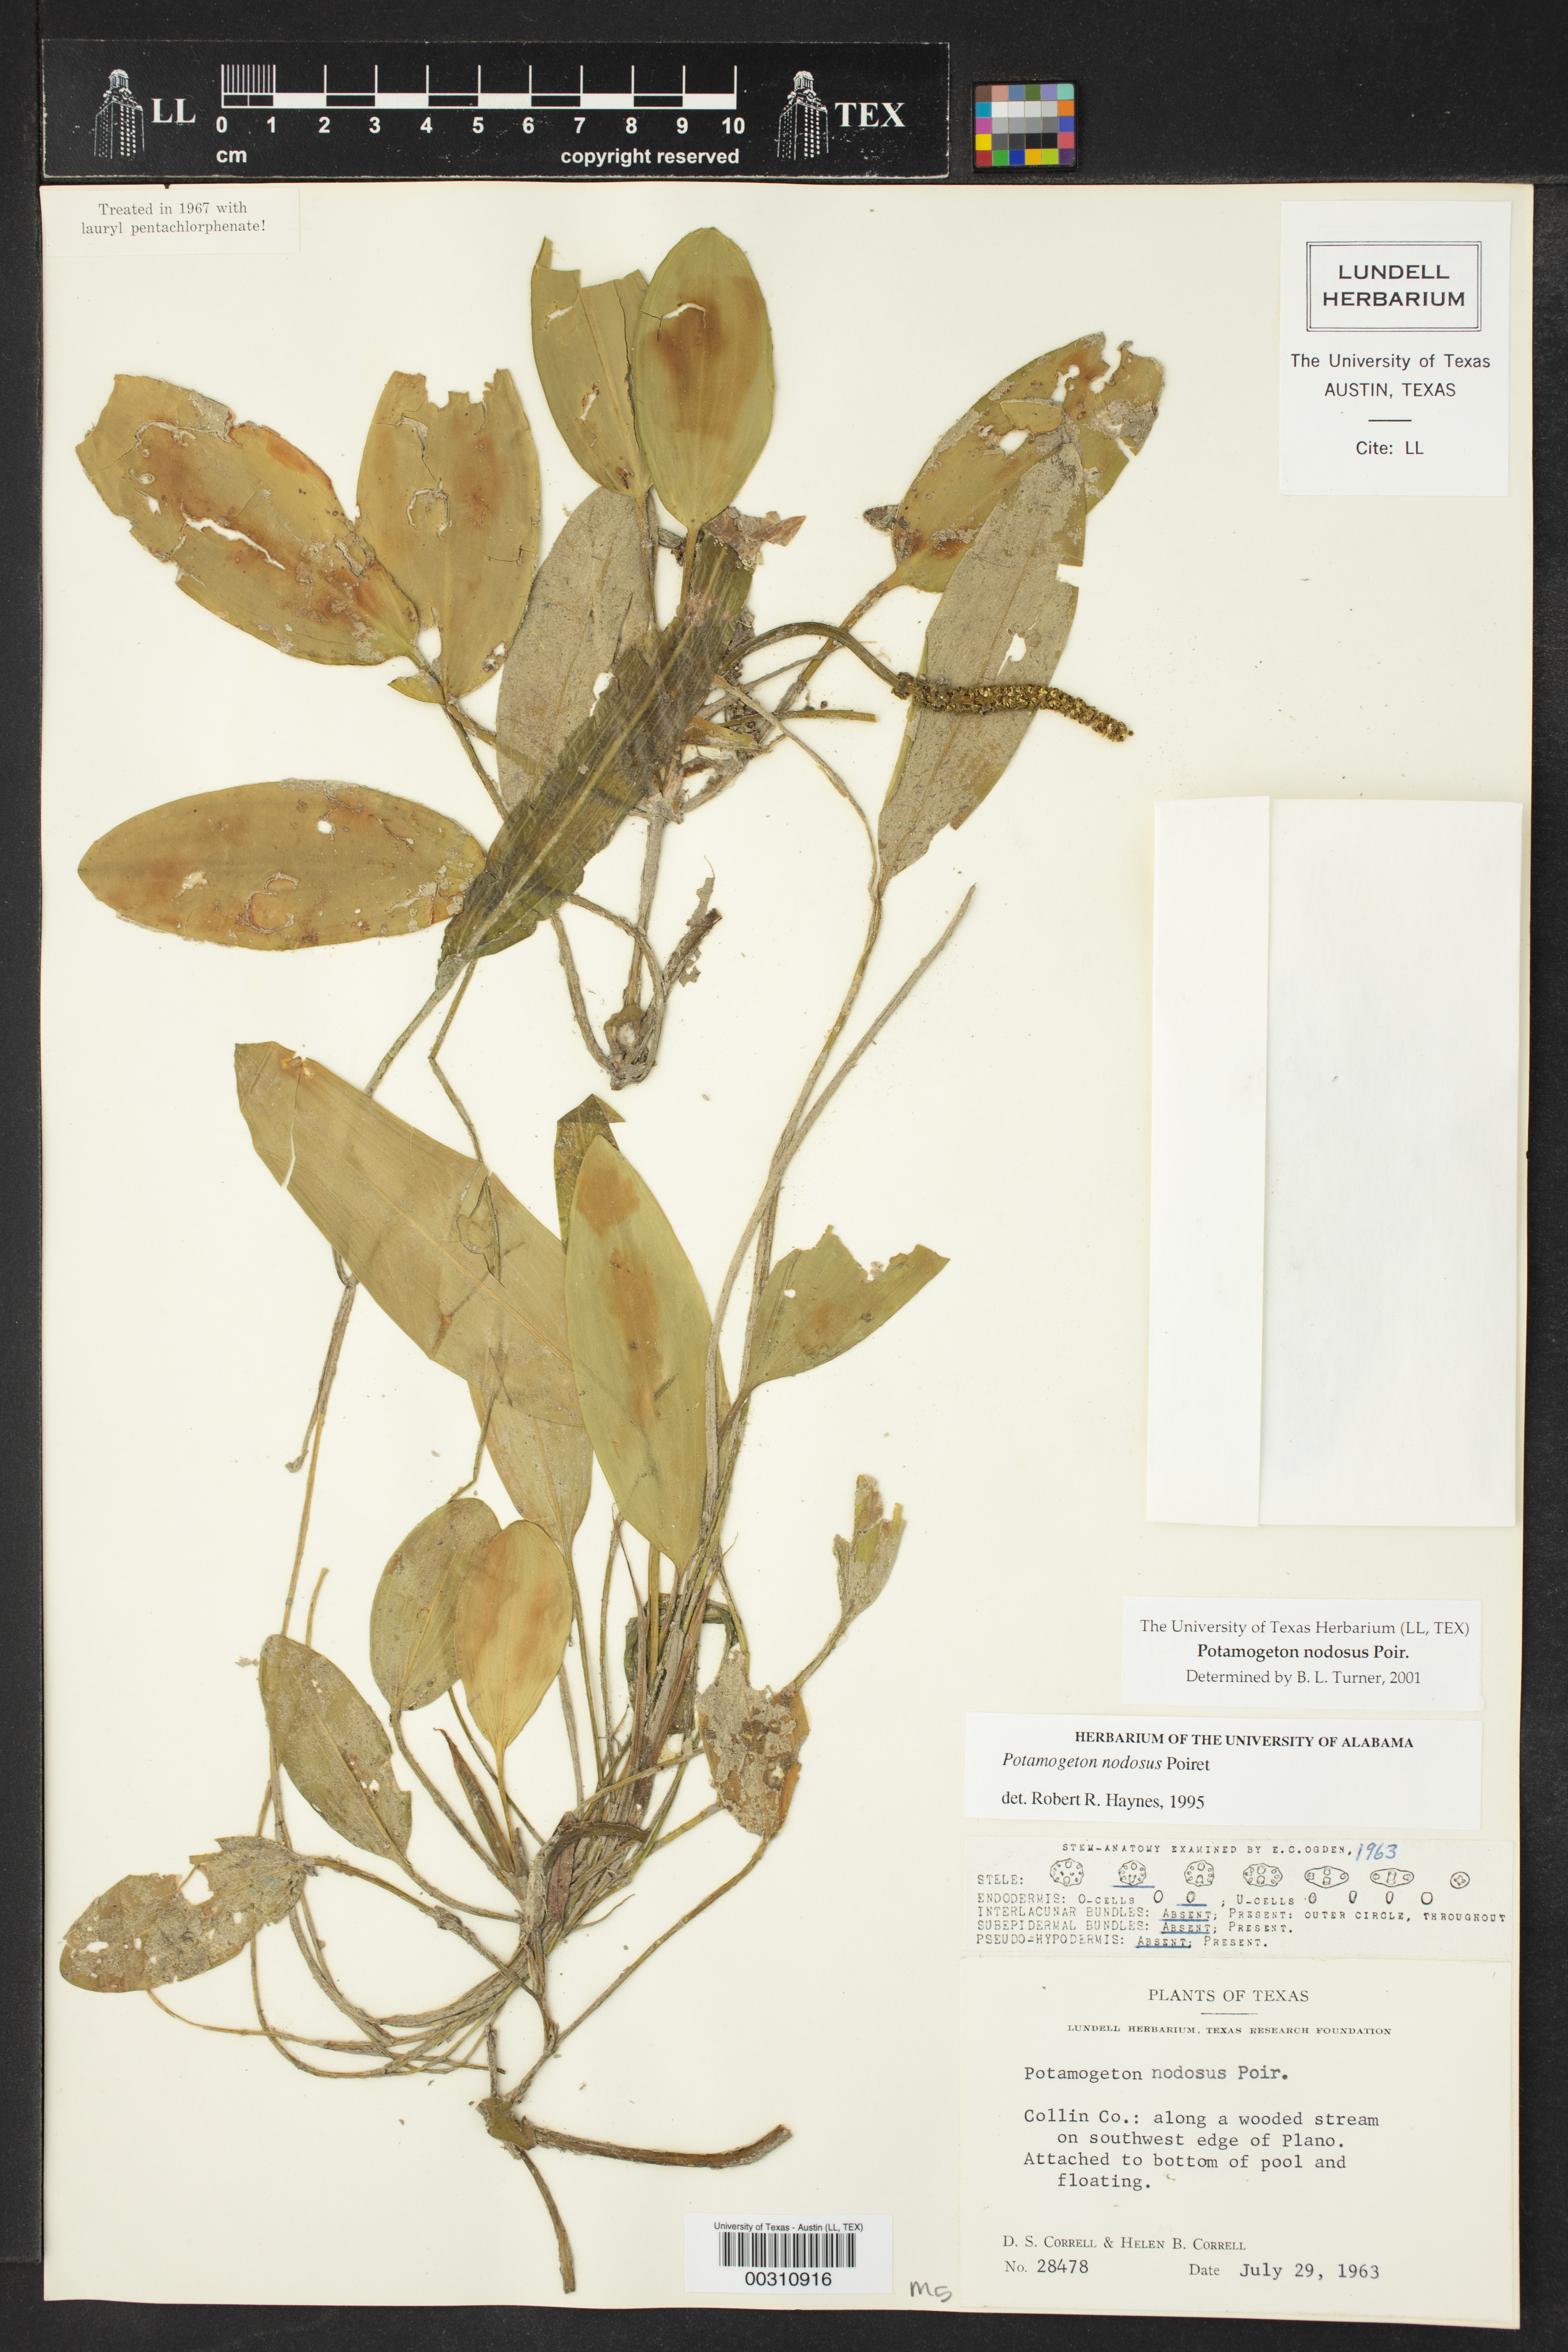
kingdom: Plantae
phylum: Tracheophyta
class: Liliopsida
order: Alismatales
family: Potamogetonaceae
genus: Potamogeton
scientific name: Potamogeton nodosus
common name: Loddon pondweed
